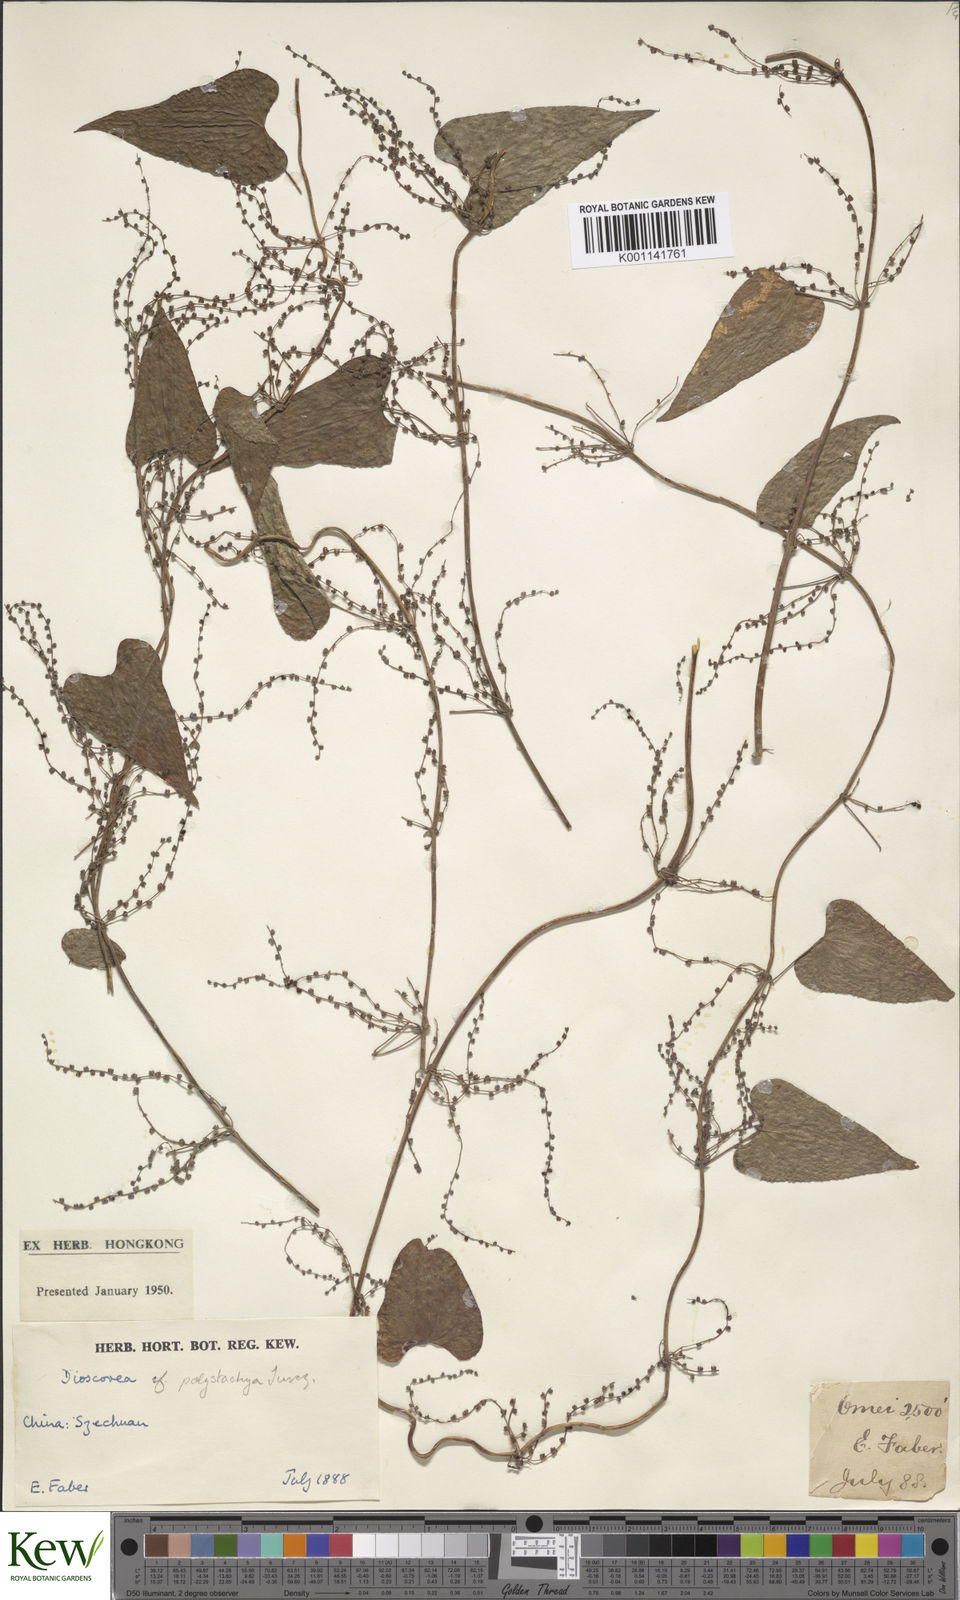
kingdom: Plantae
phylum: Tracheophyta
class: Liliopsida
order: Dioscoreales
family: Dioscoreaceae
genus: Dioscorea
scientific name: Dioscorea oppositifolia
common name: Chinese yam
